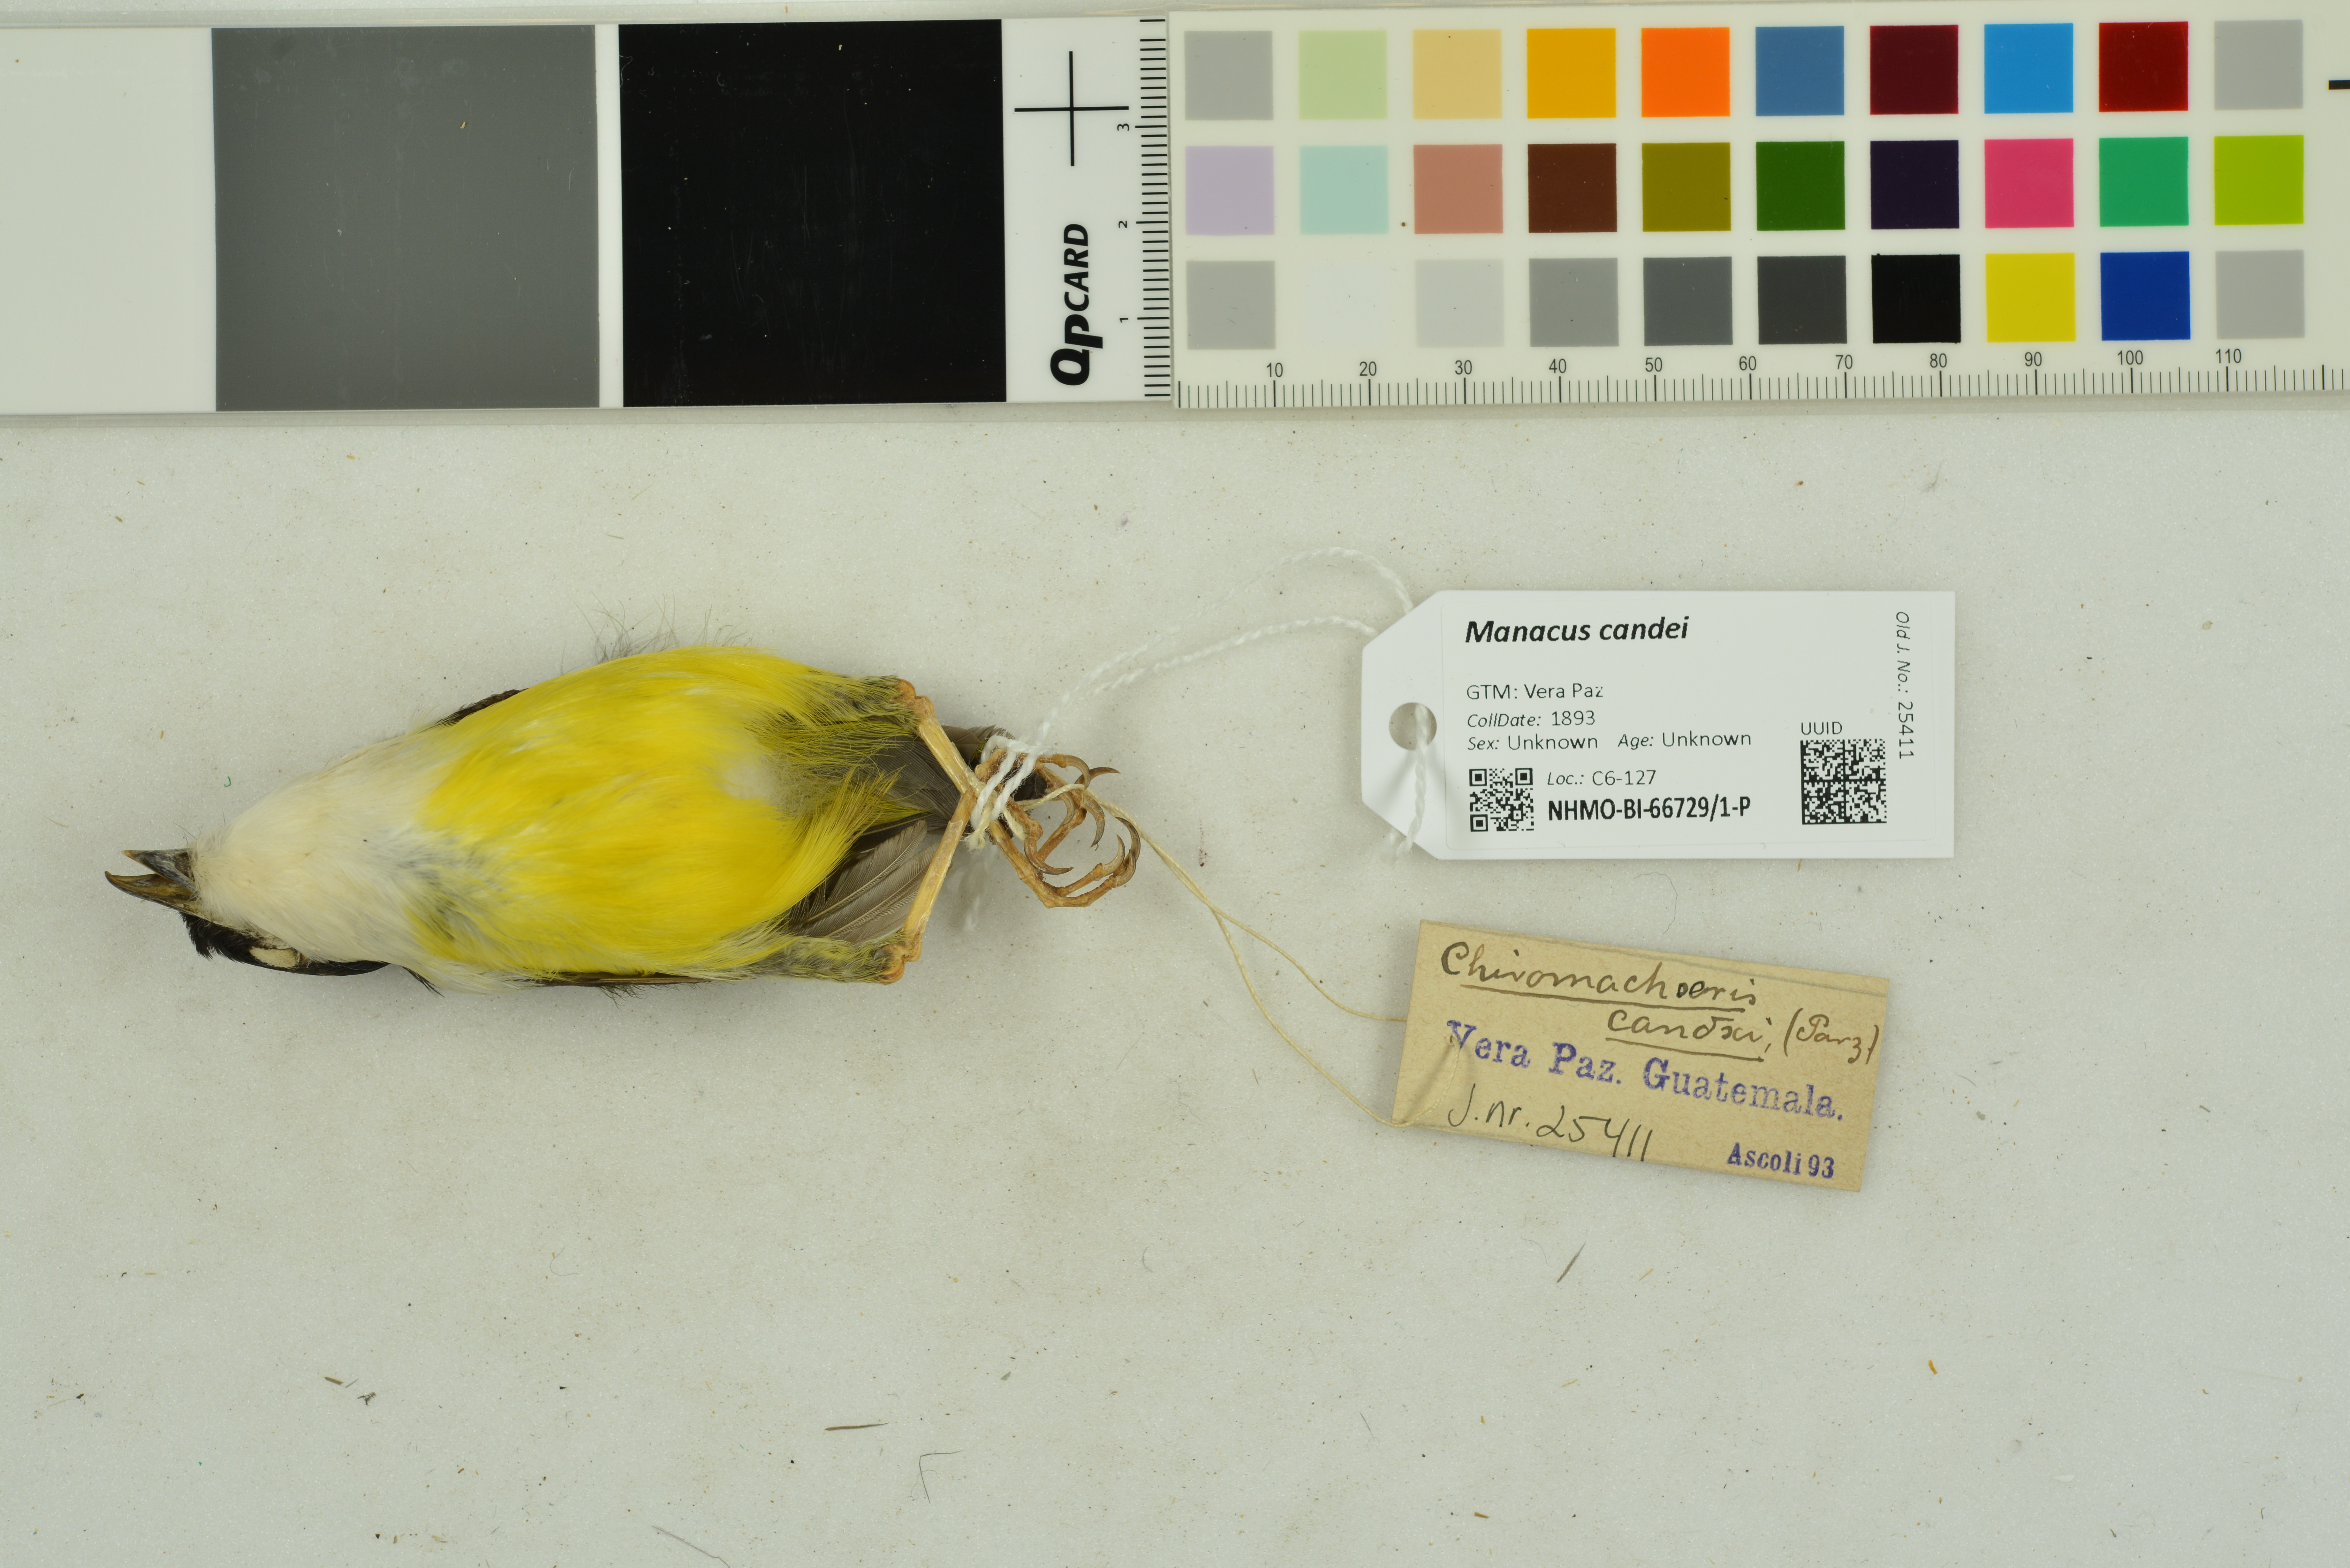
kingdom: Animalia
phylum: Chordata
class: Aves
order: Passeriformes
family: Pipridae
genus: Manacus
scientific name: Manacus candei
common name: White-collared manakin
